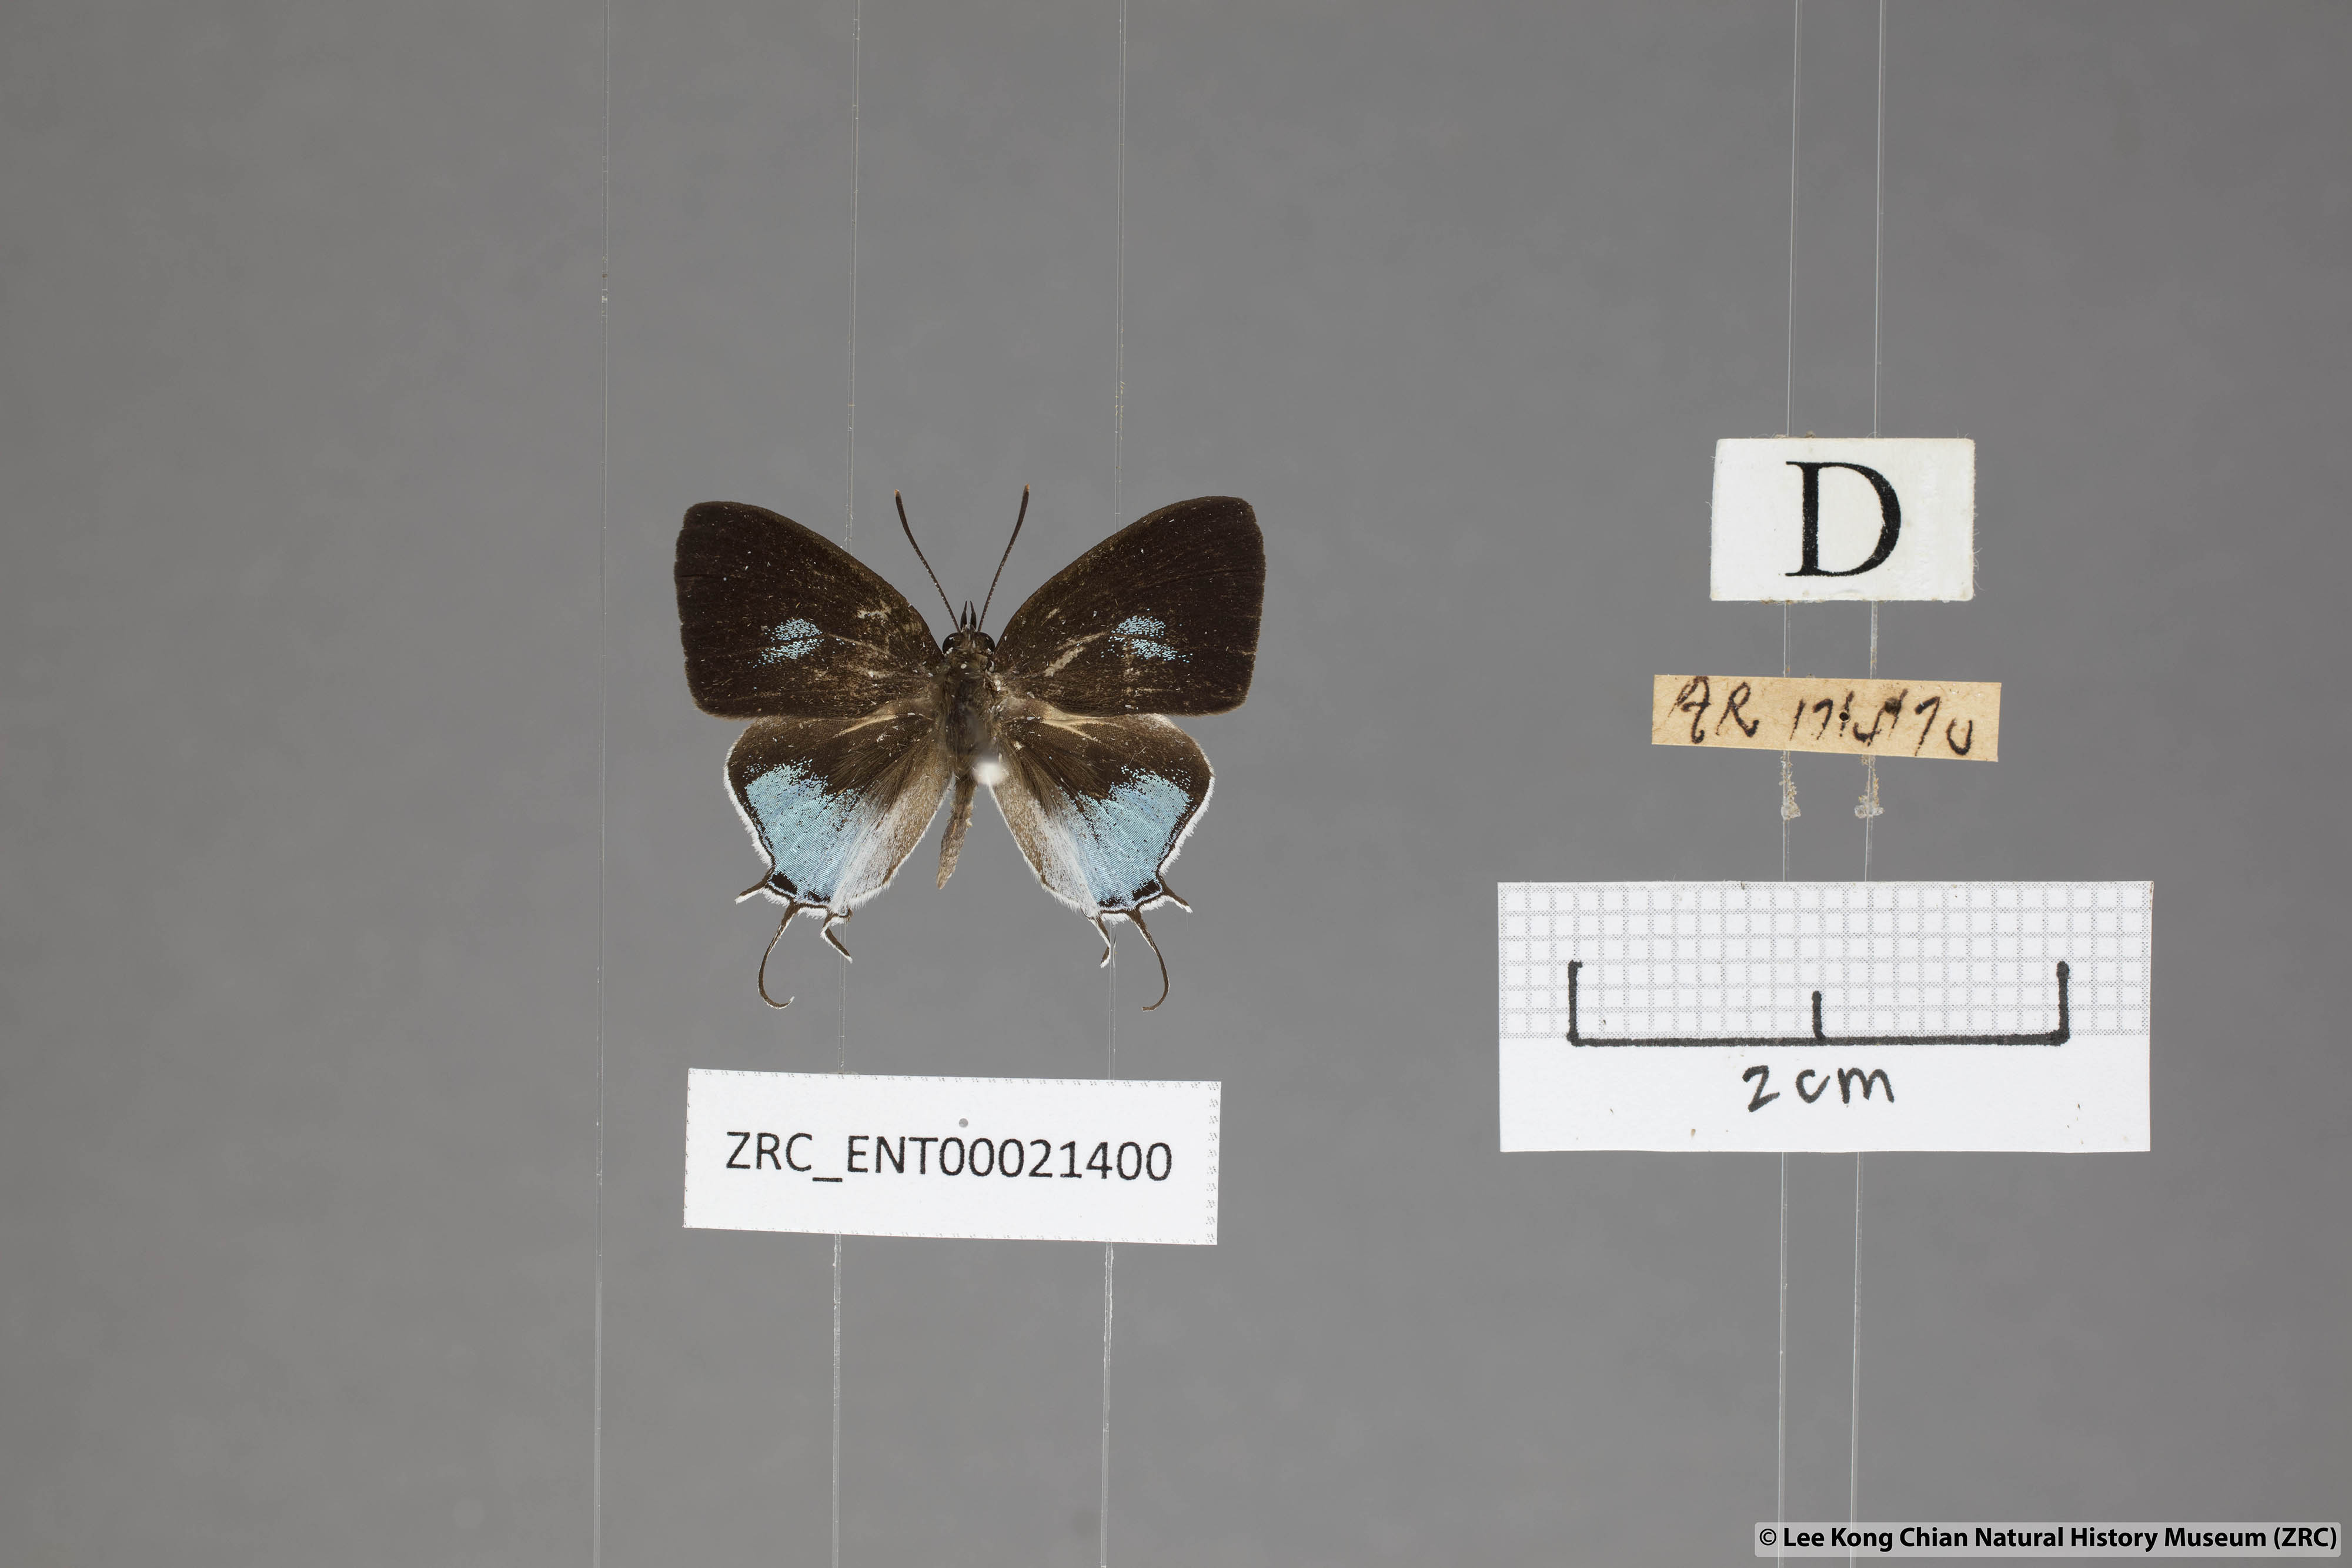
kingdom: Animalia
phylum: Arthropoda
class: Insecta
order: Lepidoptera
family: Lycaenidae
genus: Drupadia
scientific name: Drupadia scaeva
